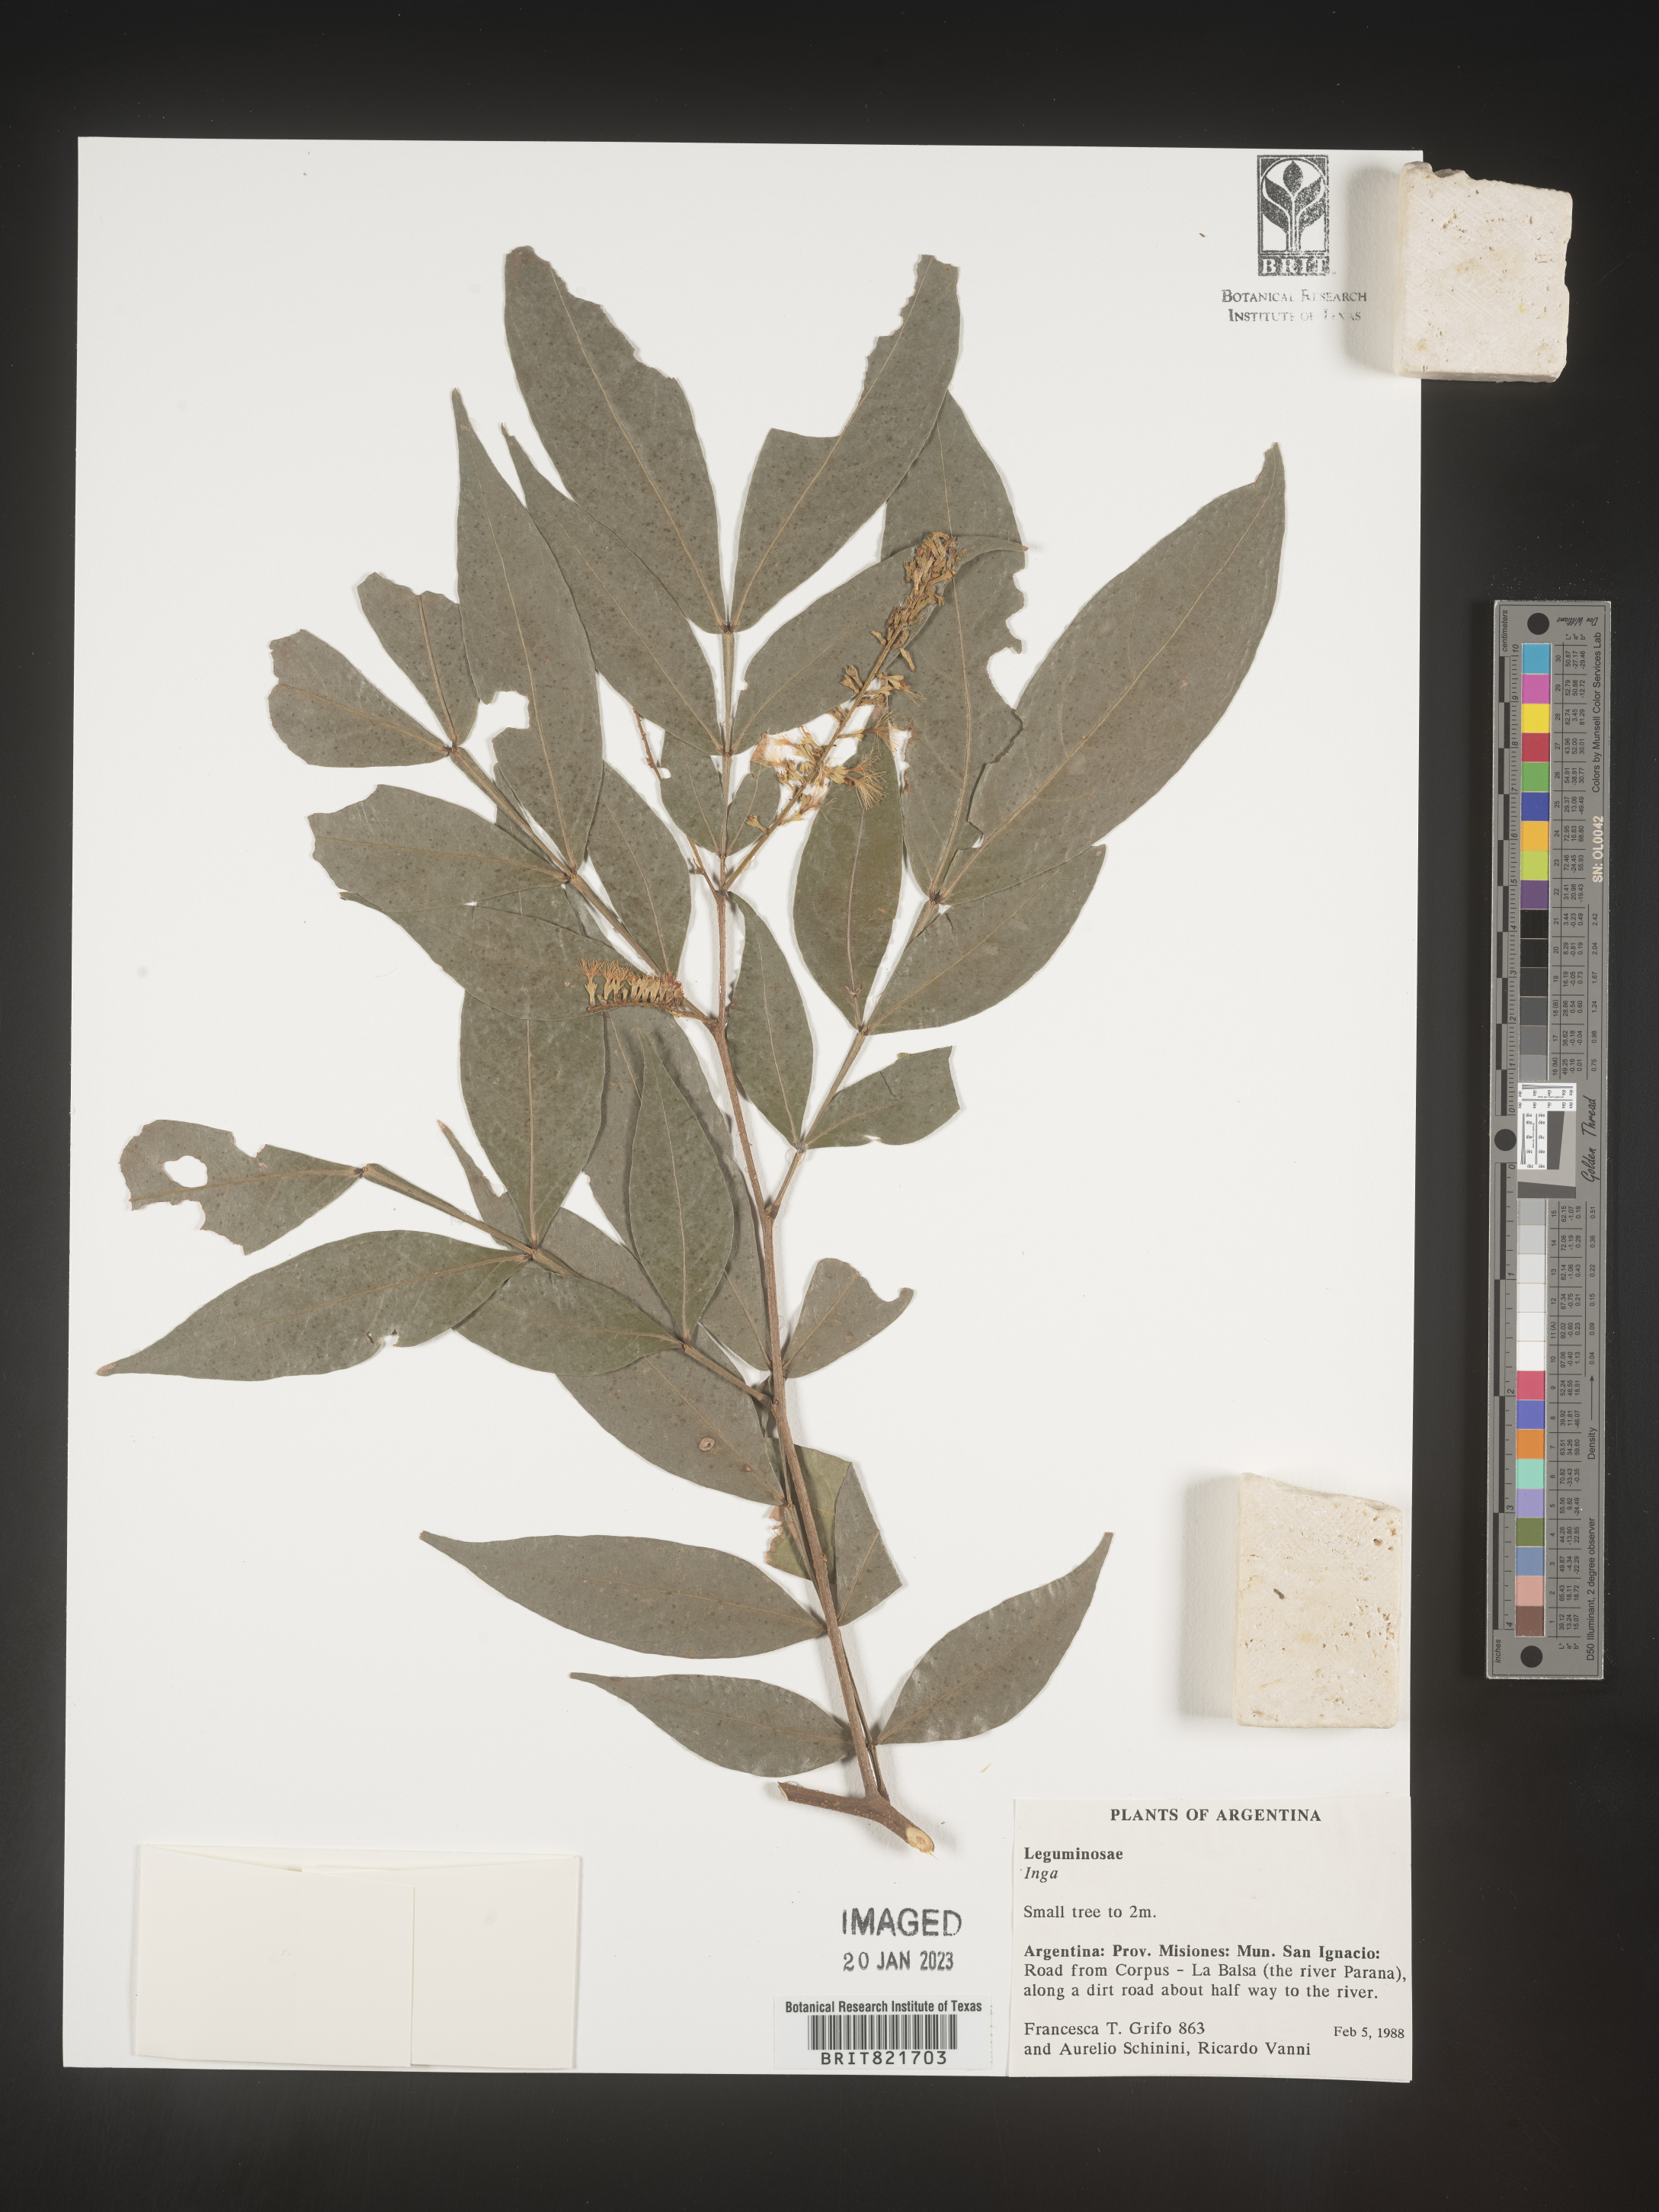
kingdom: Plantae
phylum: Tracheophyta
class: Magnoliopsida
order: Fabales
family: Fabaceae
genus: Inga
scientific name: Inga
